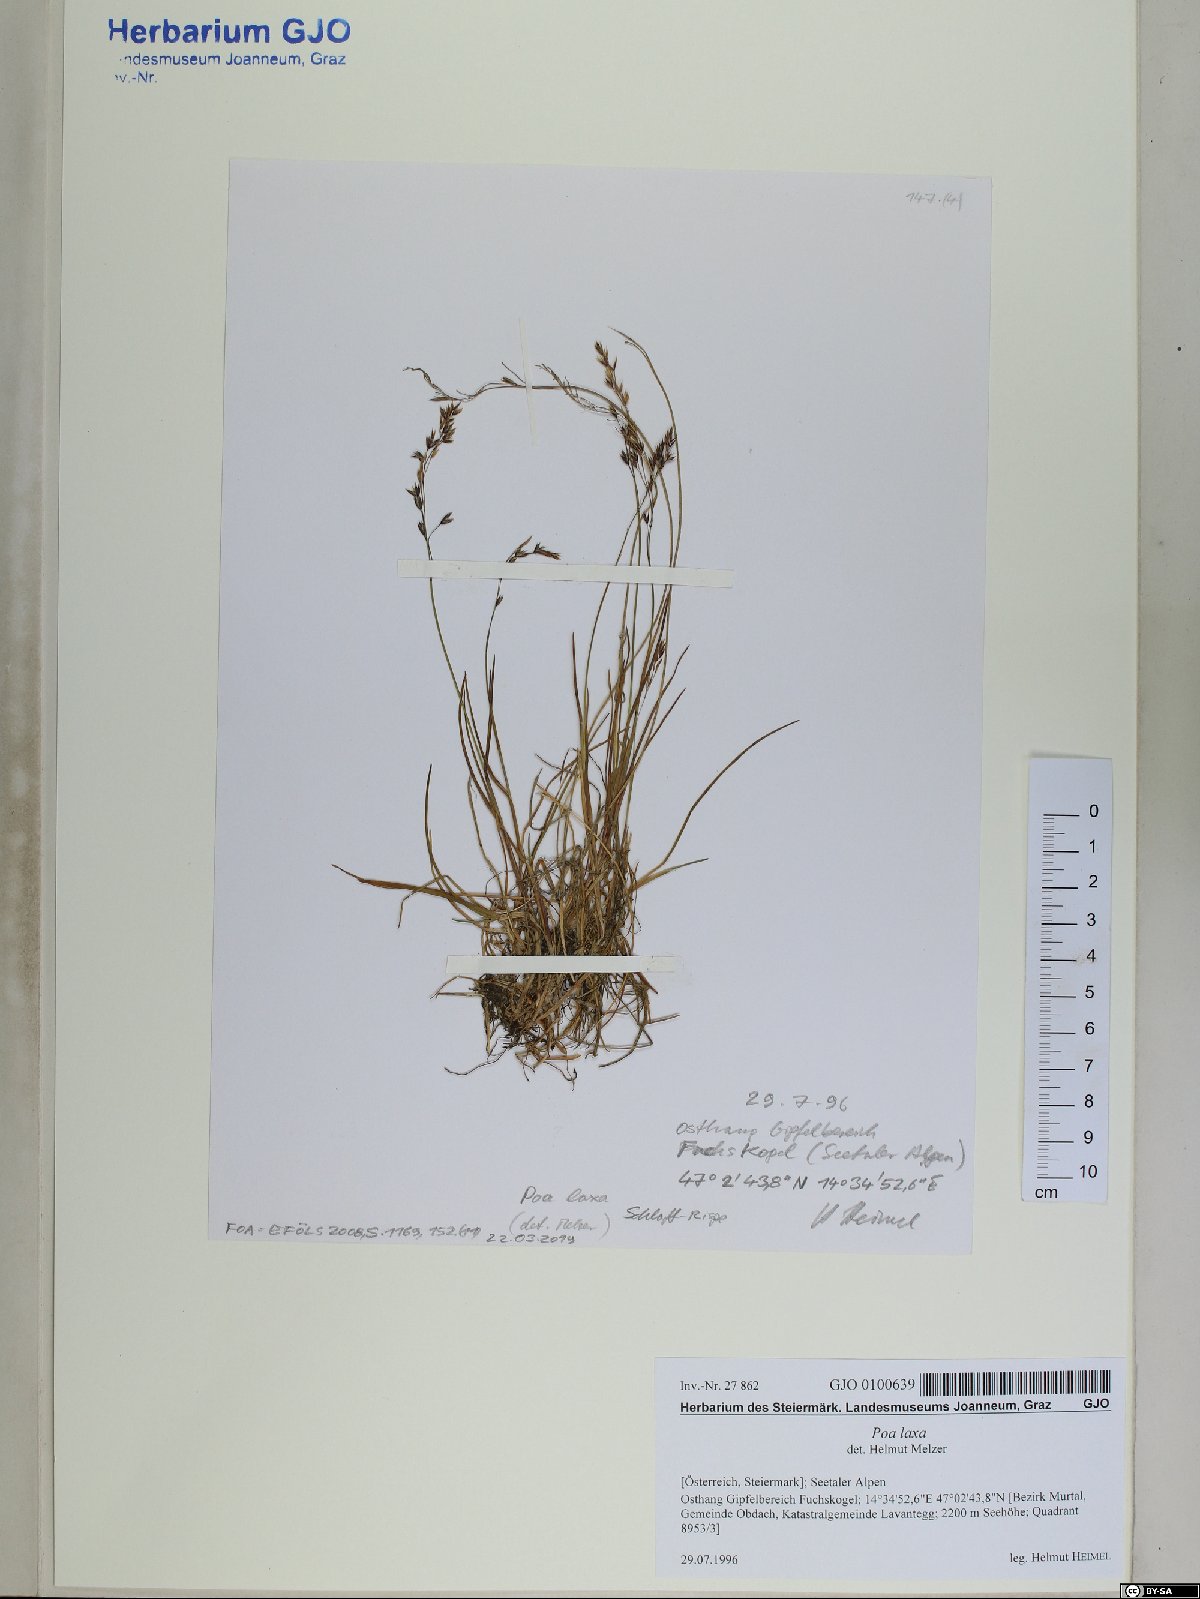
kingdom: Plantae
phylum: Tracheophyta
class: Liliopsida
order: Poales
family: Poaceae
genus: Poa
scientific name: Poa laxa
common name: Lax bluegrass
